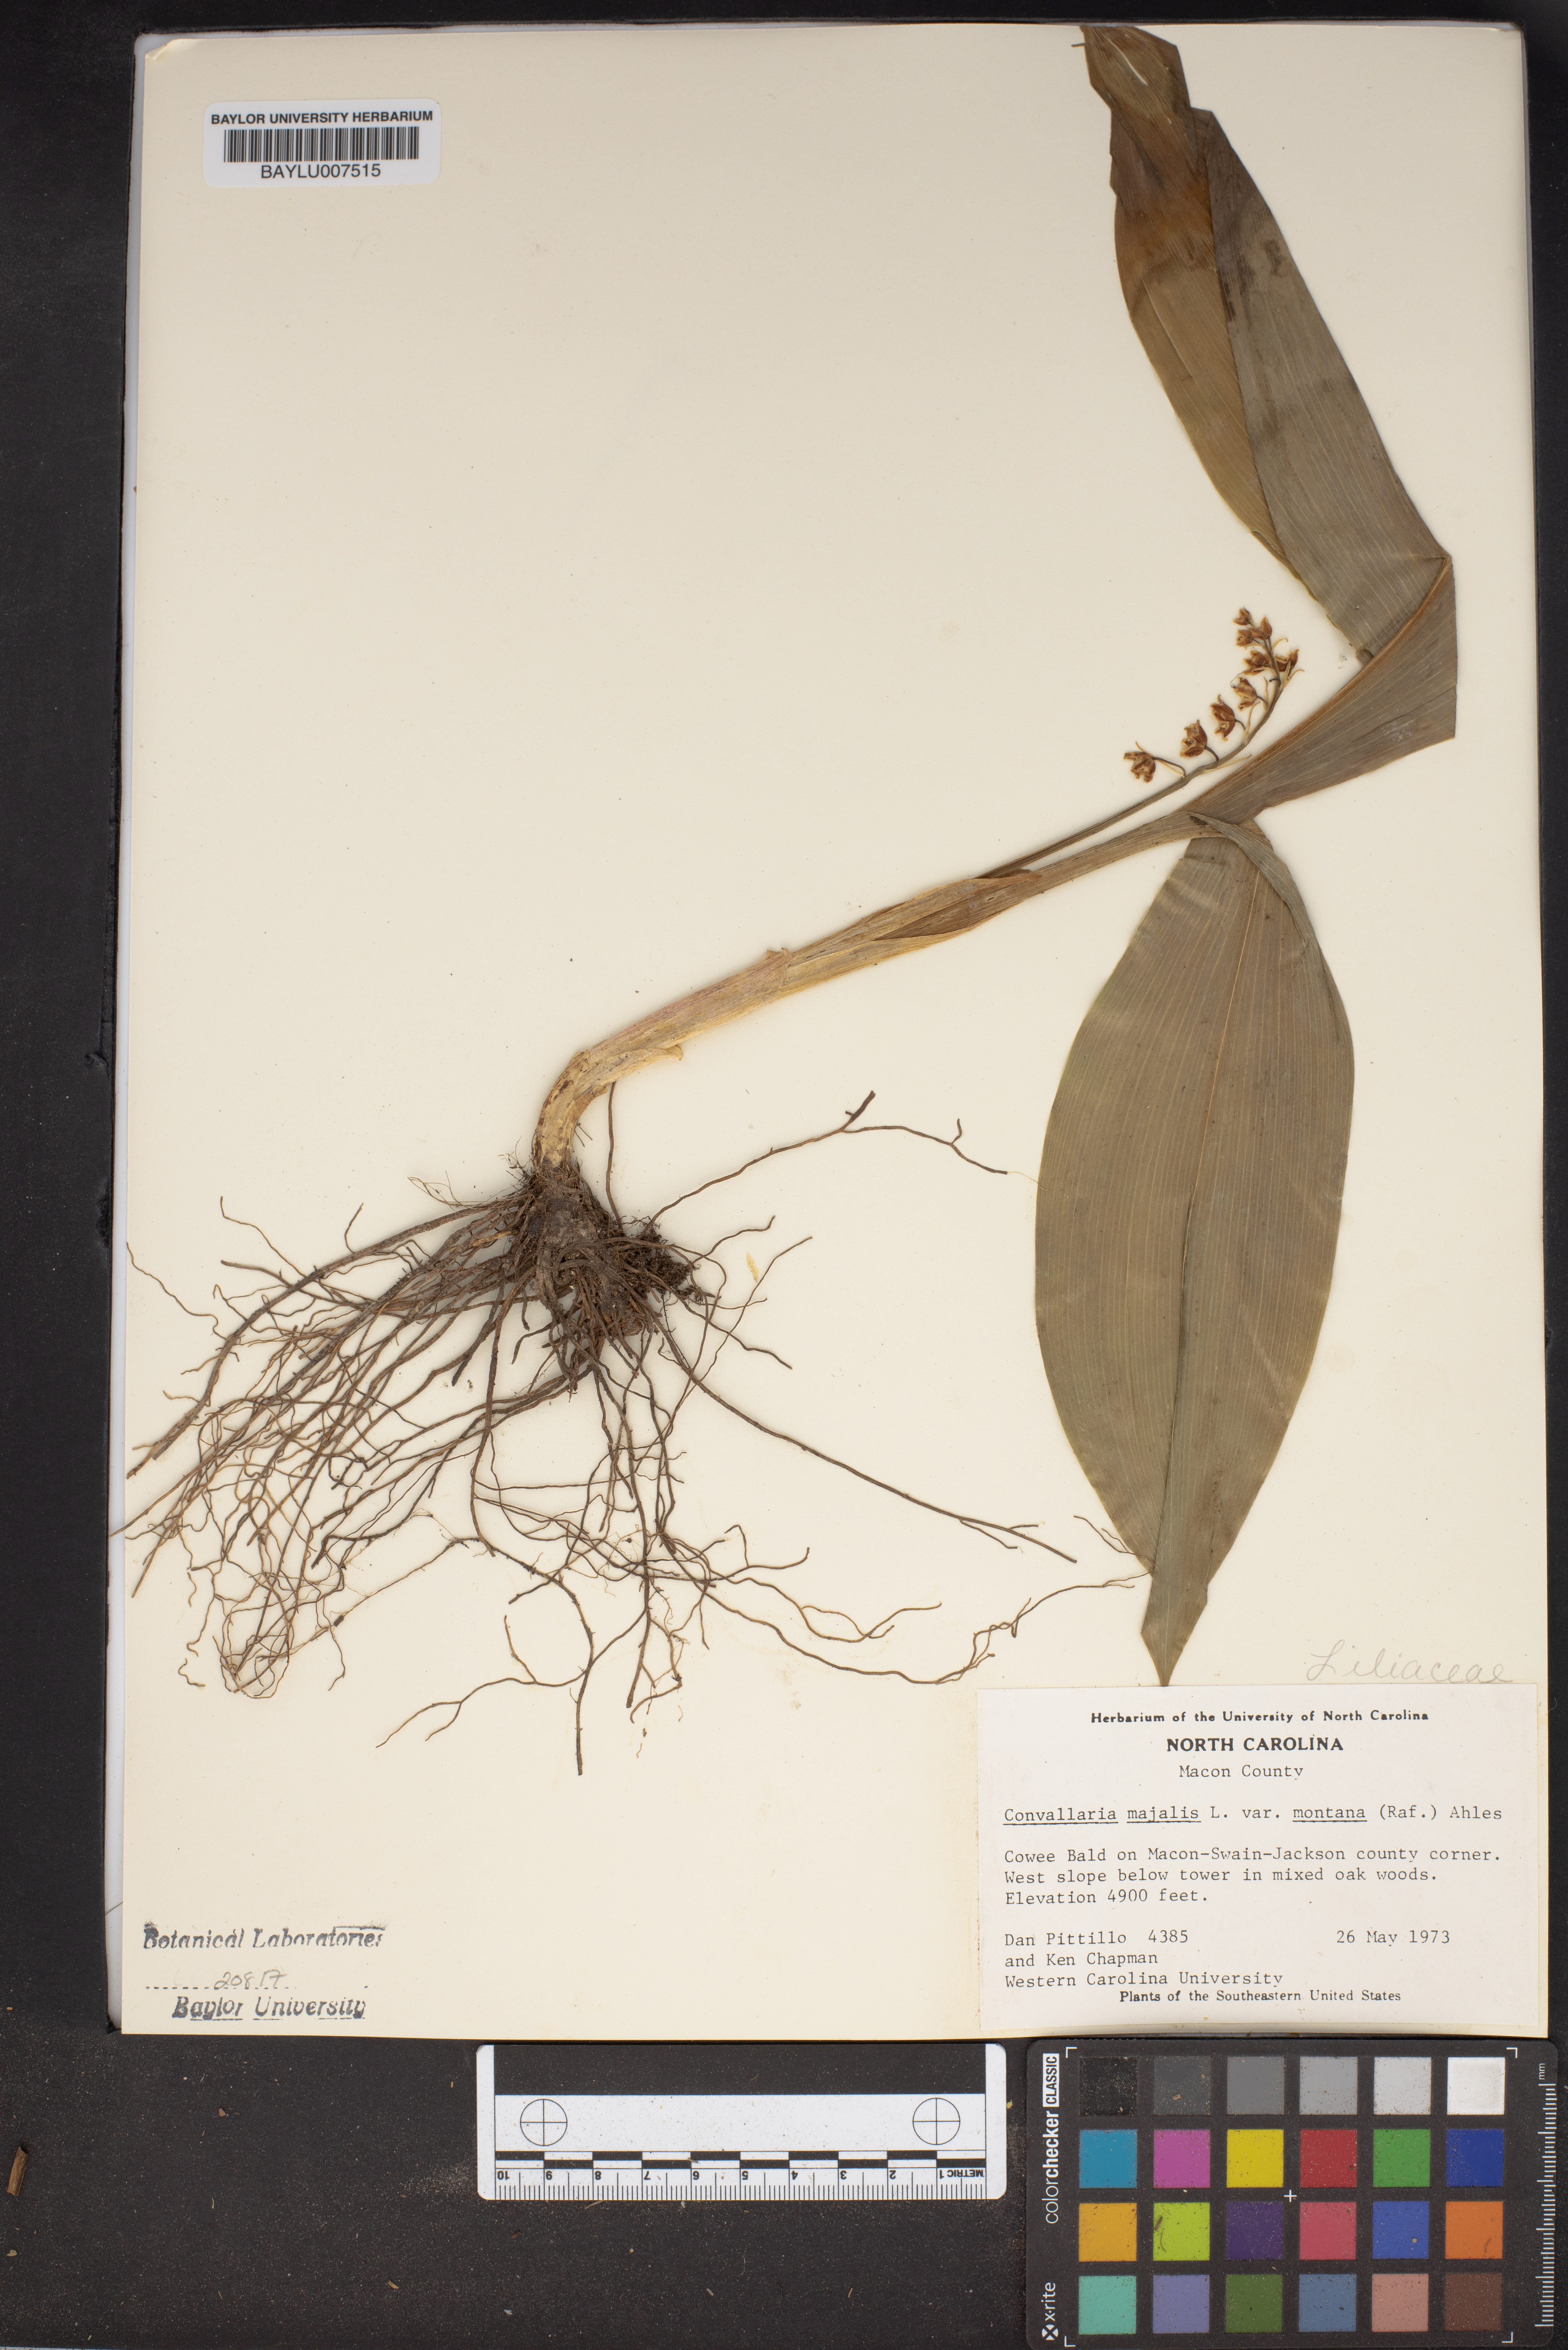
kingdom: Plantae
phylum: Tracheophyta
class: Liliopsida
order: Asparagales
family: Asparagaceae
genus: Convallaria
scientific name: Convallaria pseudomajalis
